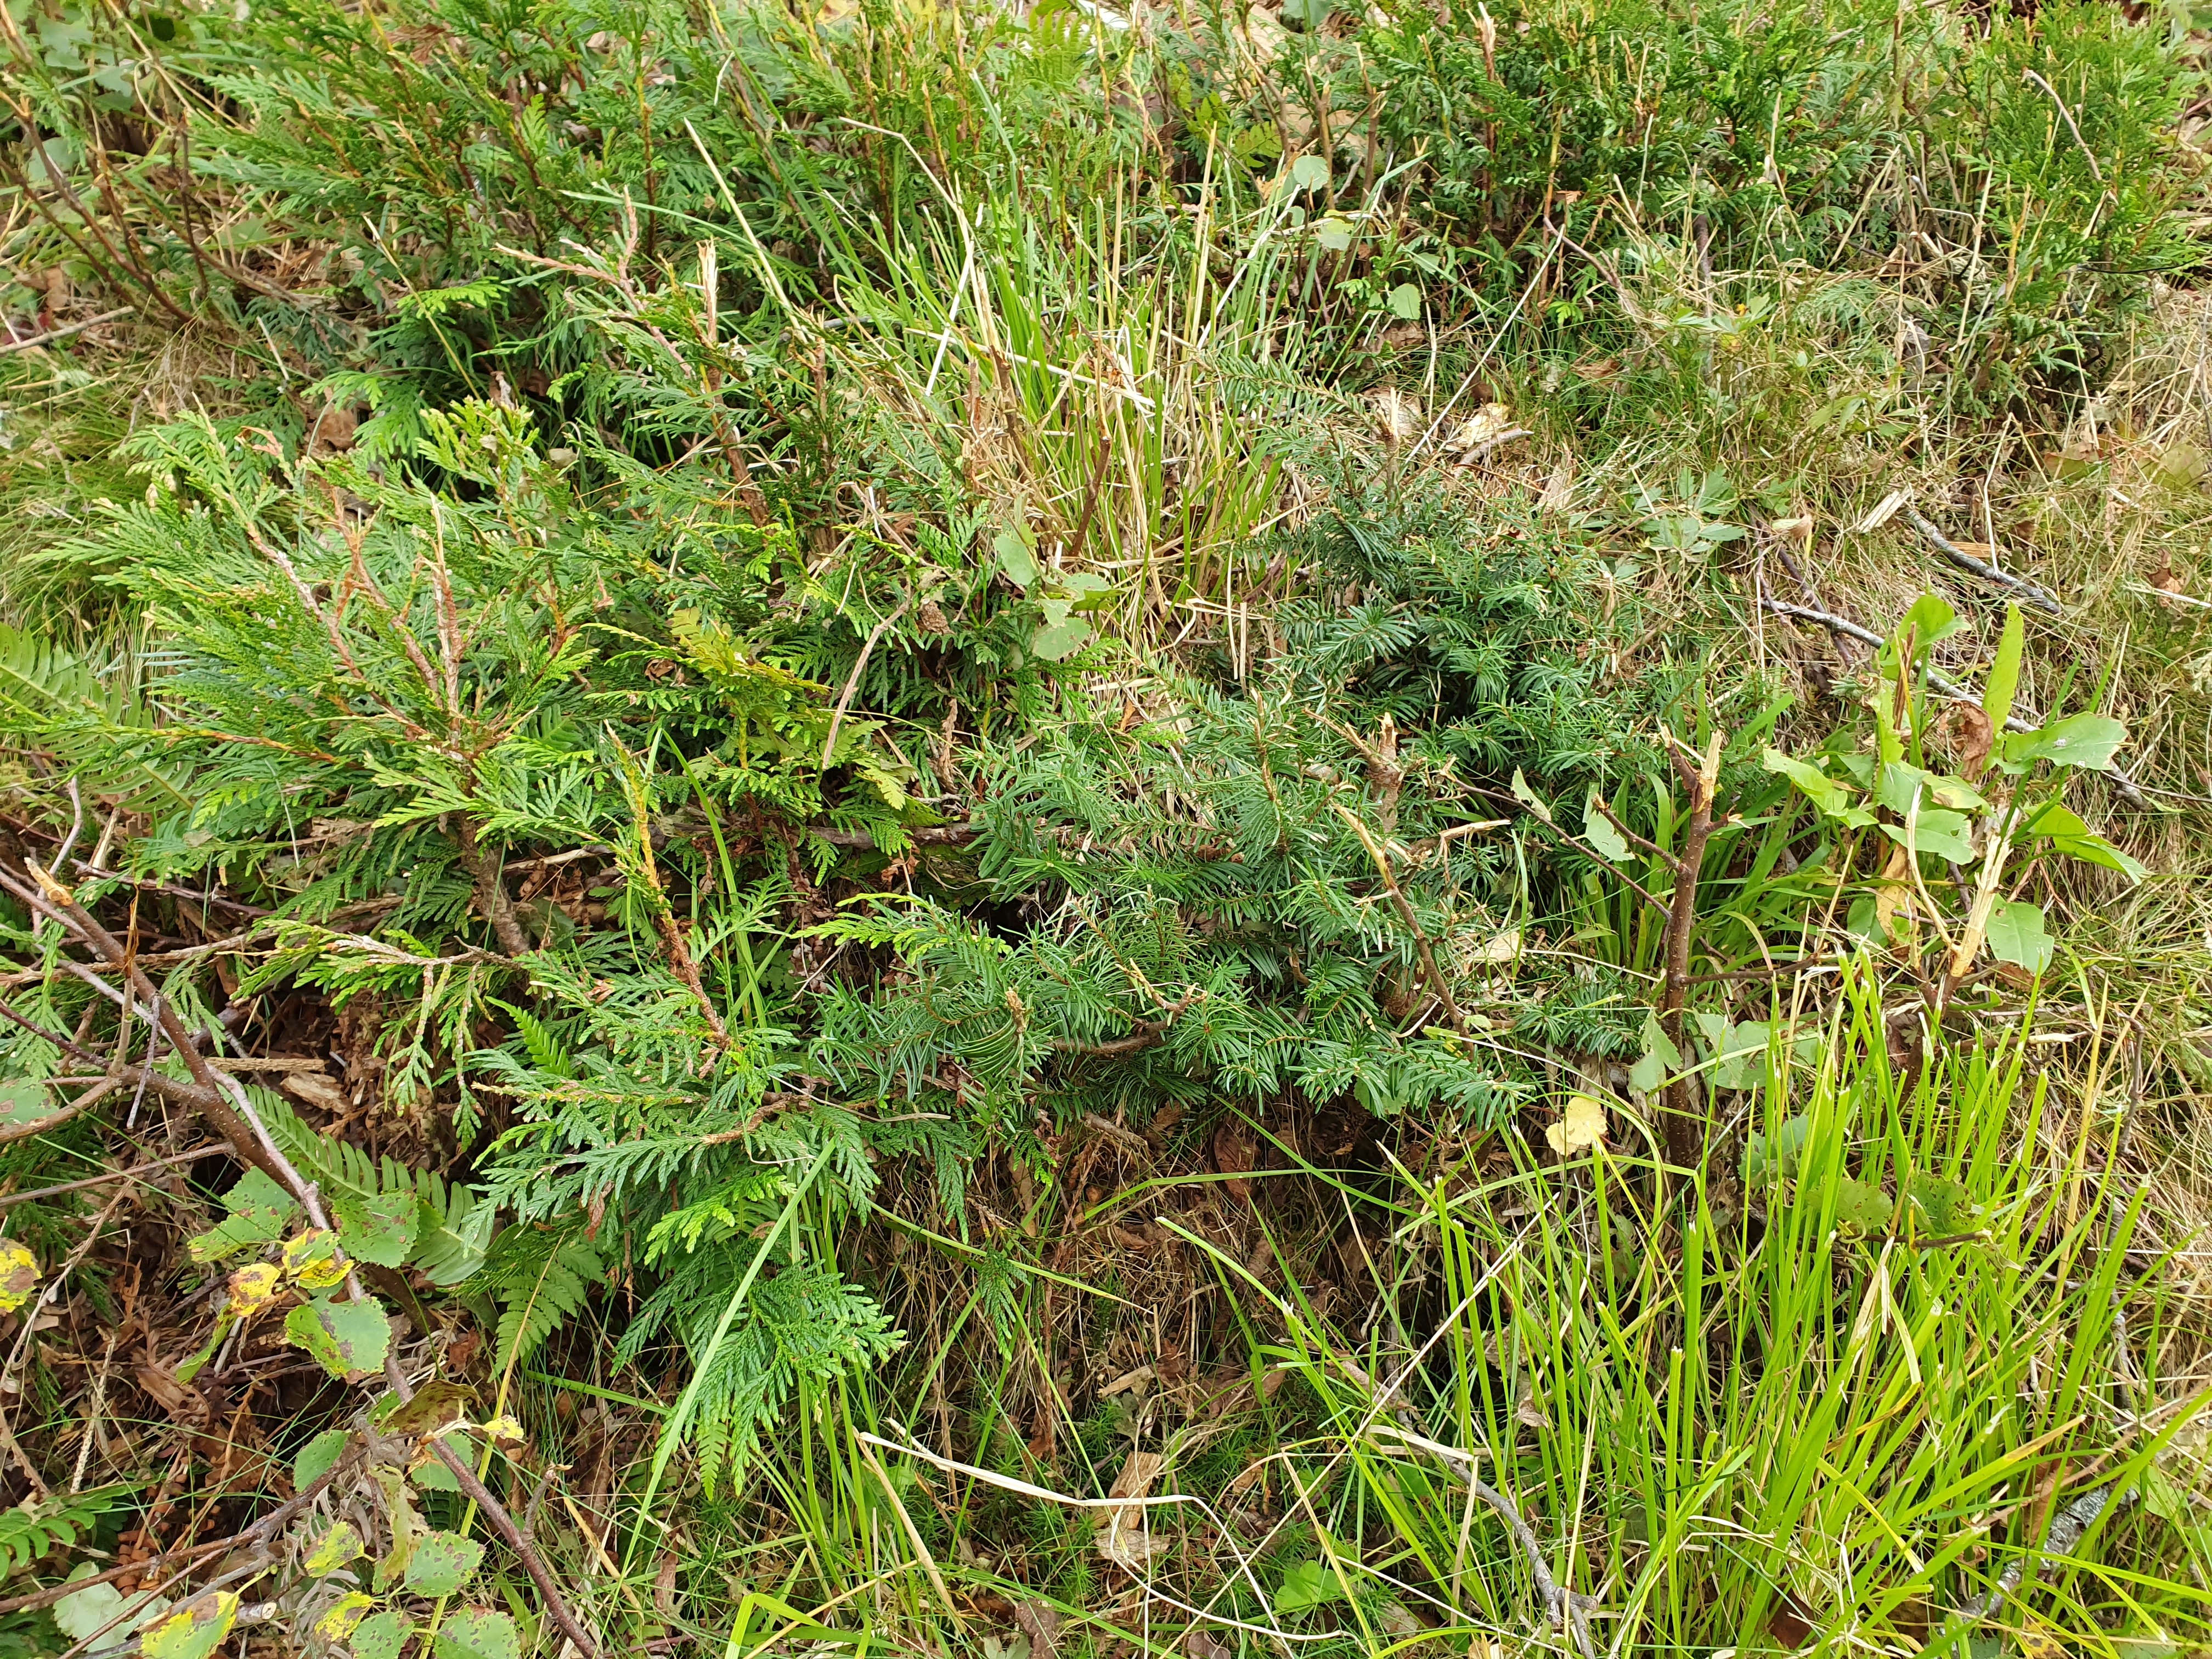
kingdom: Plantae
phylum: Tracheophyta
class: Pinopsida
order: Pinales
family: Pinaceae
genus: Picea
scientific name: Picea sitchensis
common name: Sitka spruce
